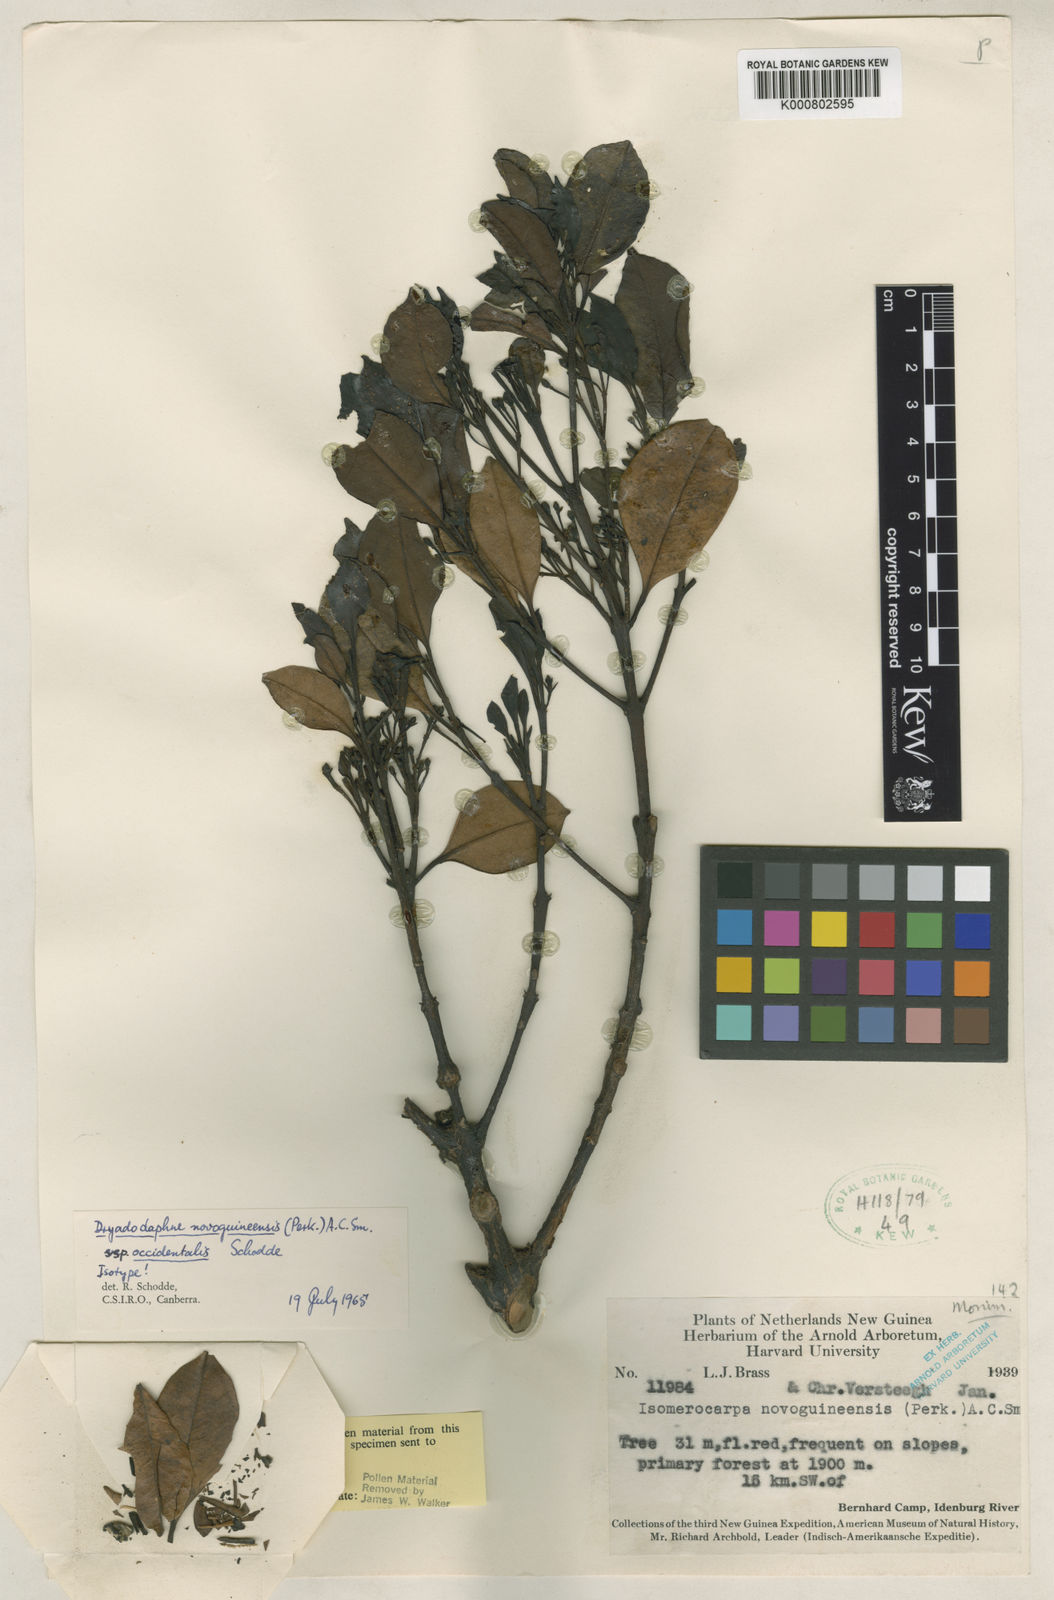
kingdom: Plantae
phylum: Tracheophyta
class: Magnoliopsida
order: Laurales
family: Atherospermataceae
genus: Dryadodaphne
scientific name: Dryadodaphne novoguineensis
